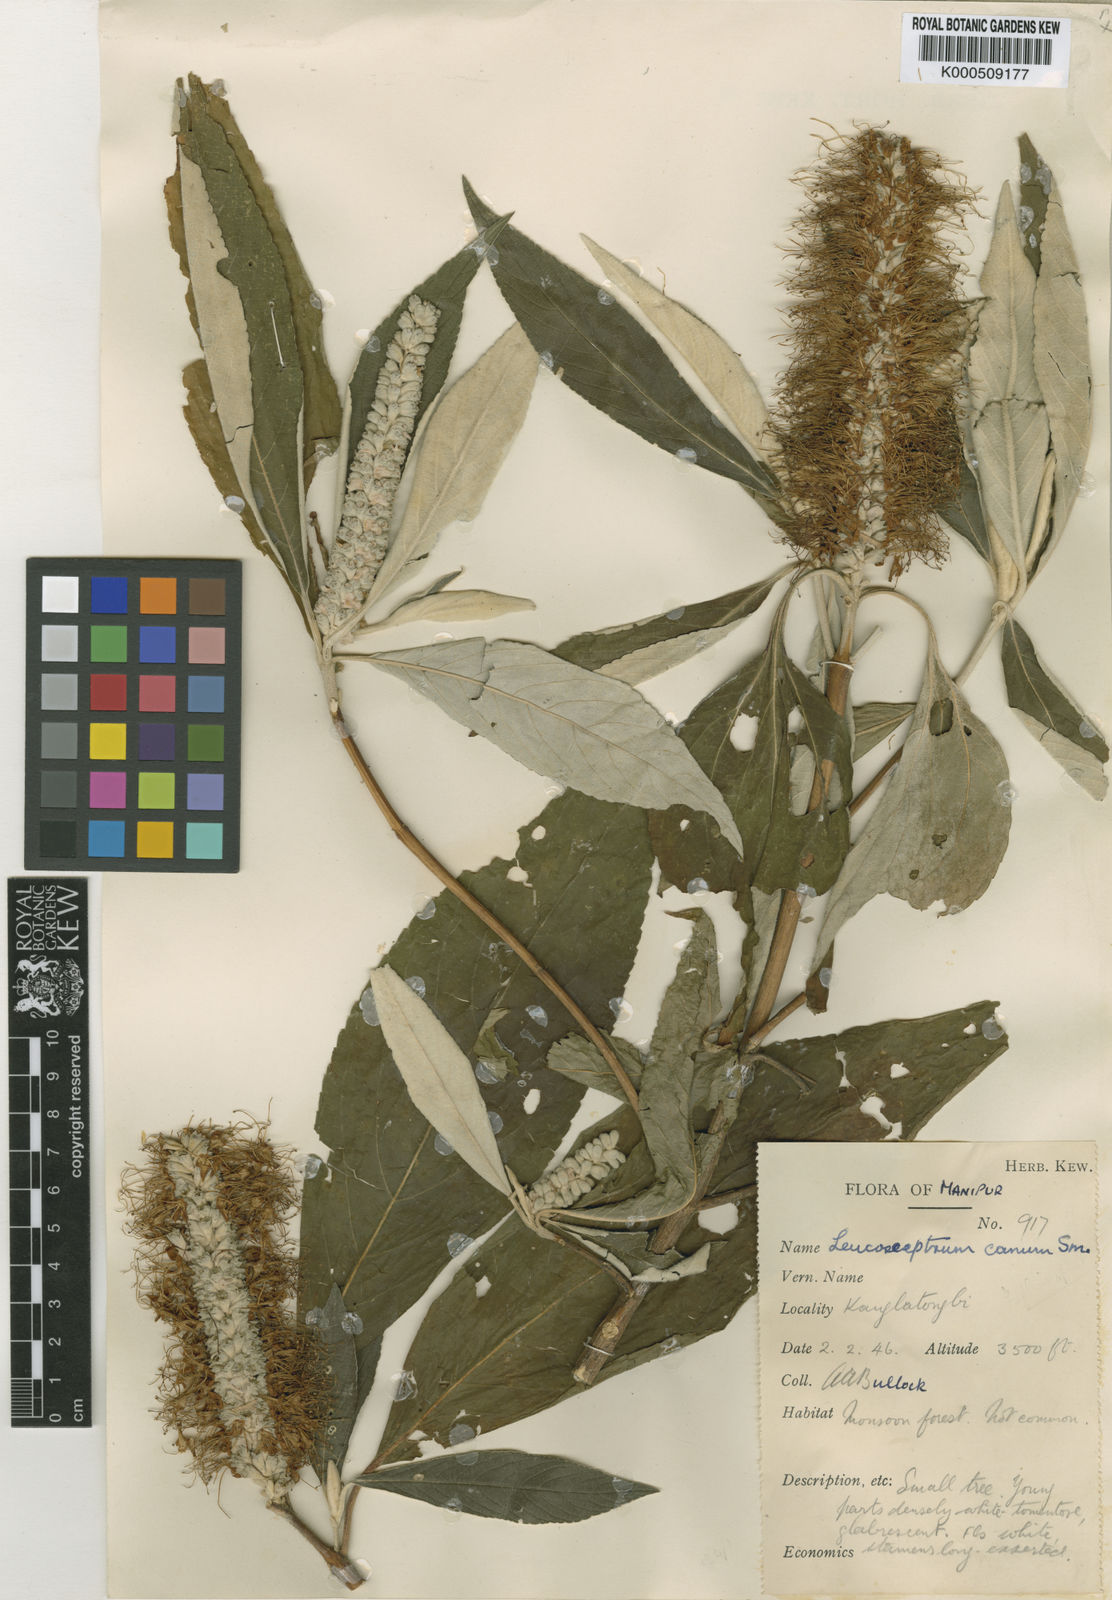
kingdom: Plantae
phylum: Tracheophyta
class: Magnoliopsida
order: Lamiales
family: Lamiaceae
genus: Leucosceptrum
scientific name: Leucosceptrum canum
